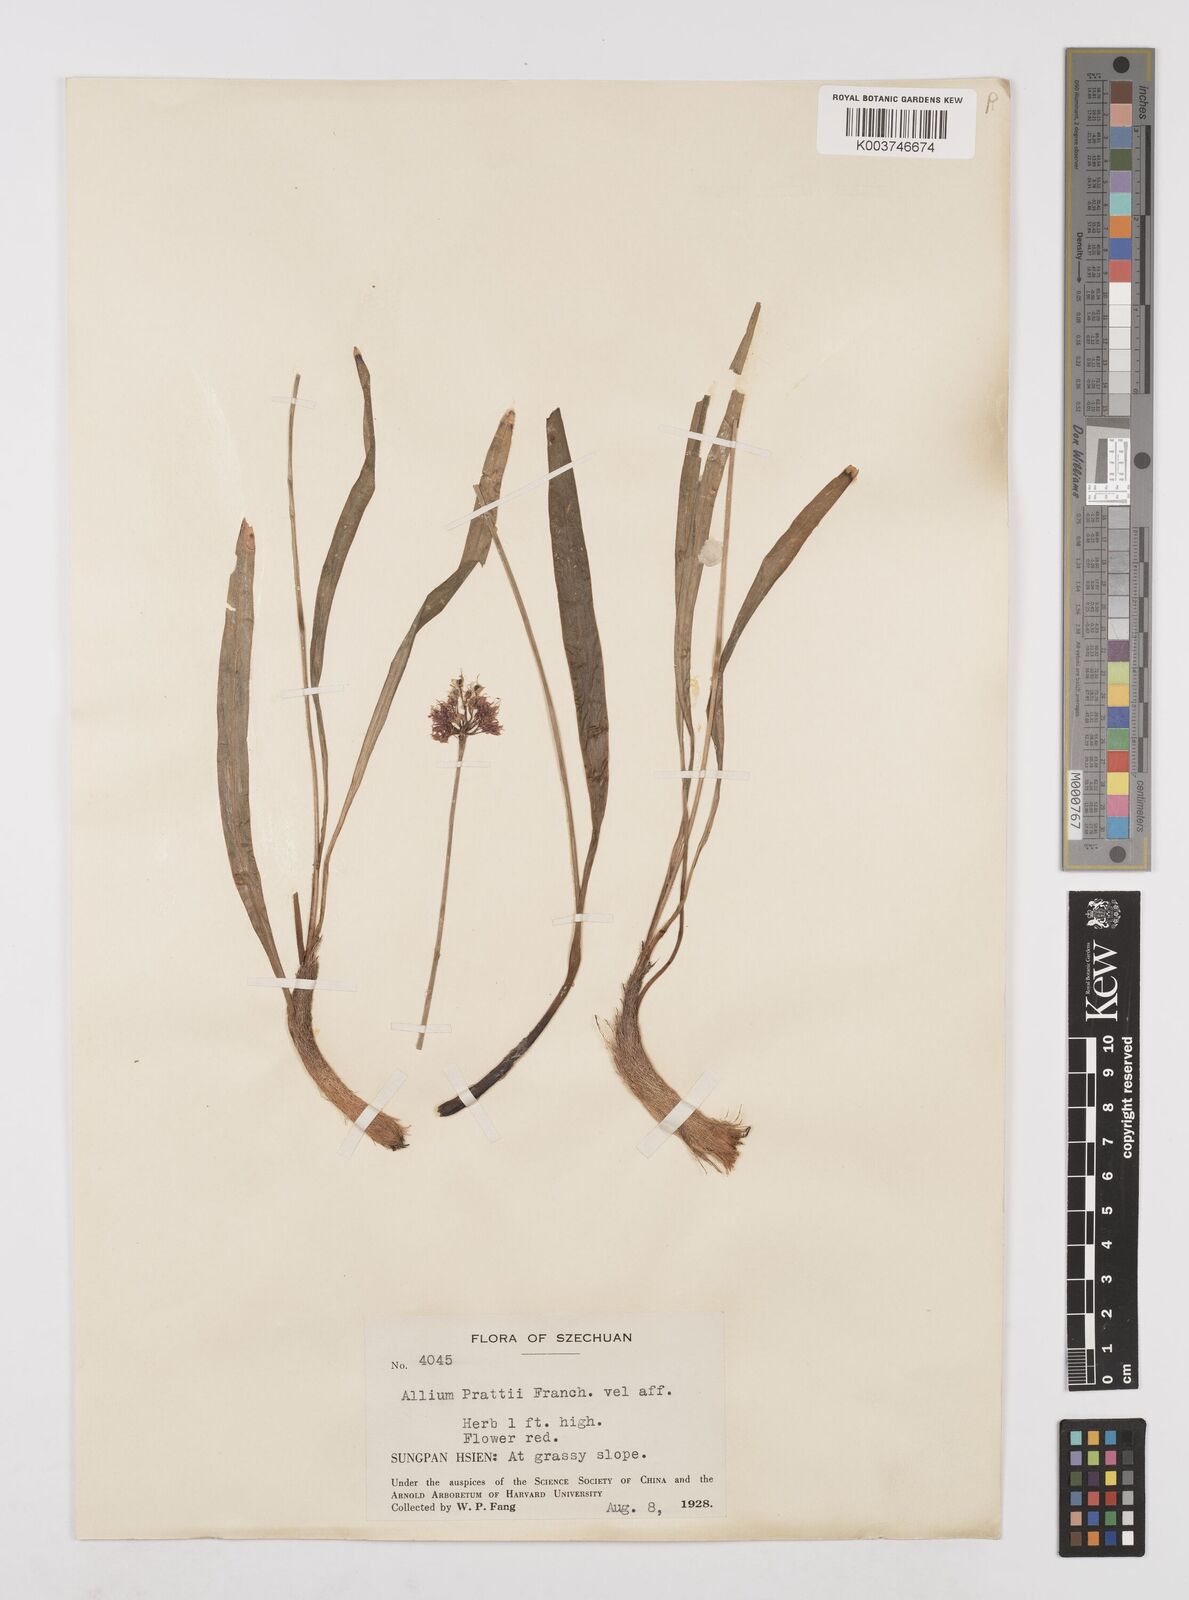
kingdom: Plantae
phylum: Tracheophyta
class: Liliopsida
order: Asparagales
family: Amaryllidaceae
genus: Allium
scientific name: Allium prattii
